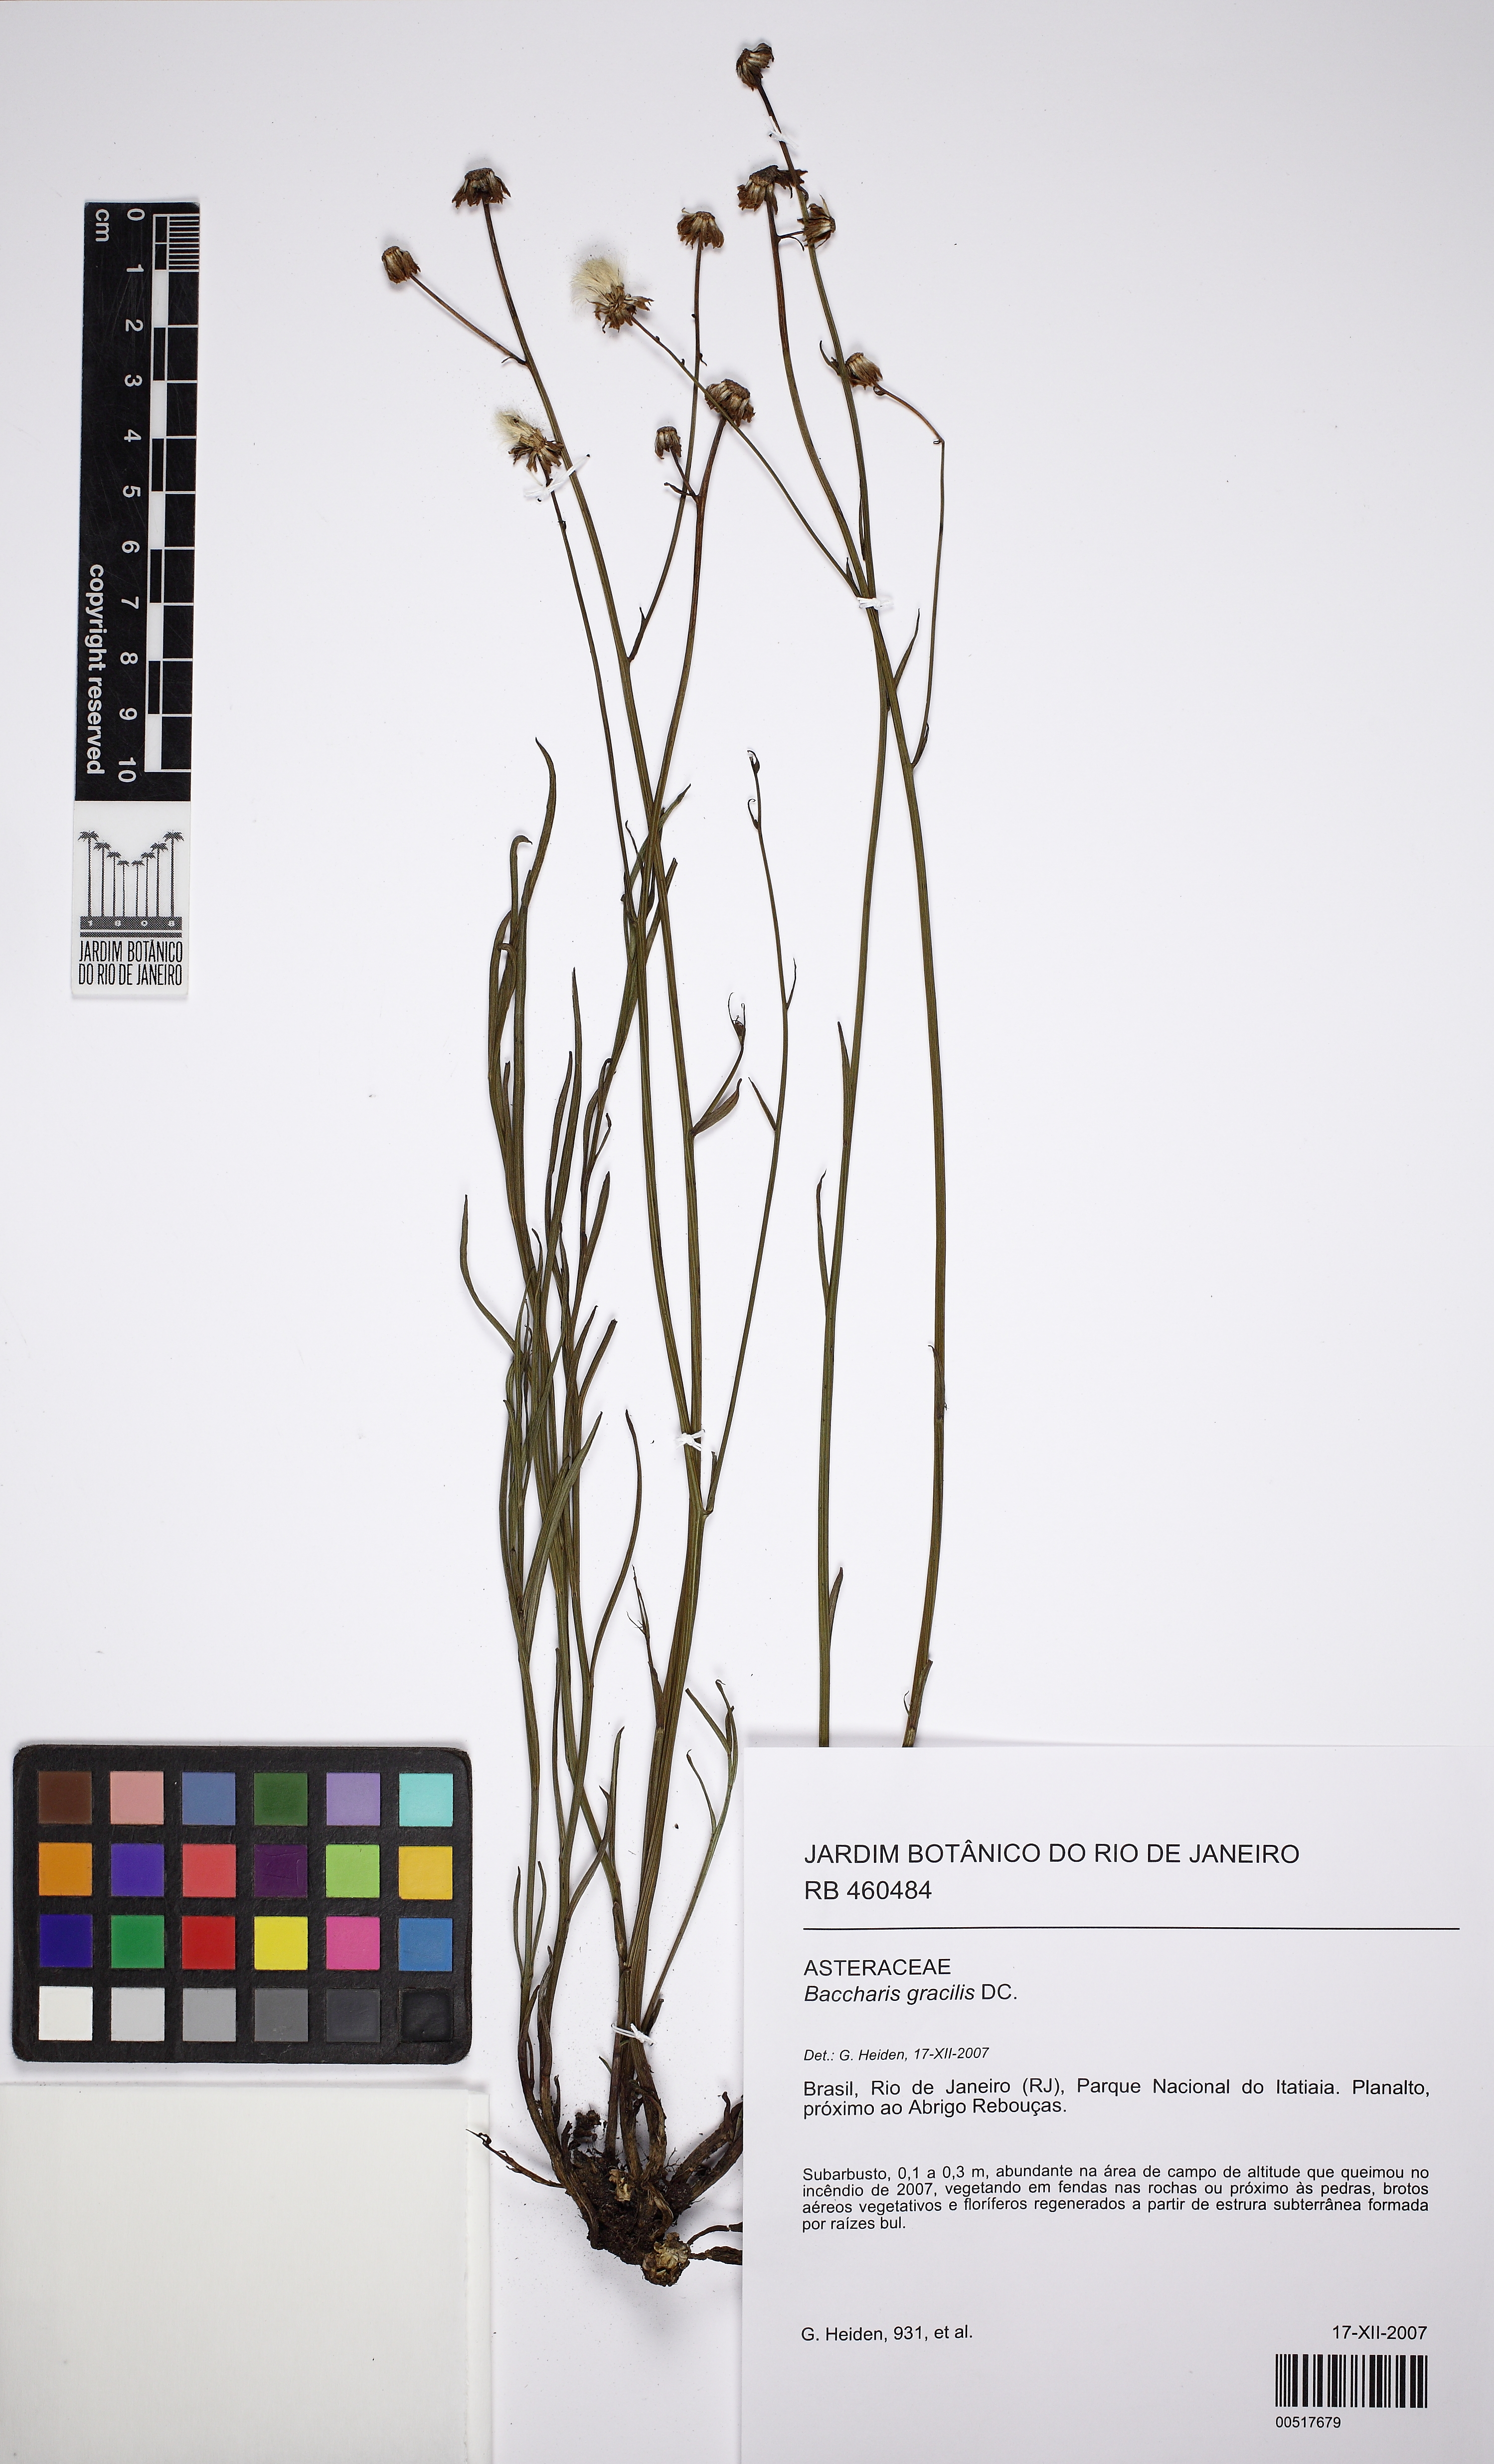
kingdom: Plantae
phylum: Tracheophyta
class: Magnoliopsida
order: Asterales
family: Asteraceae
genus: Baccharis
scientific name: Baccharis gracilis
